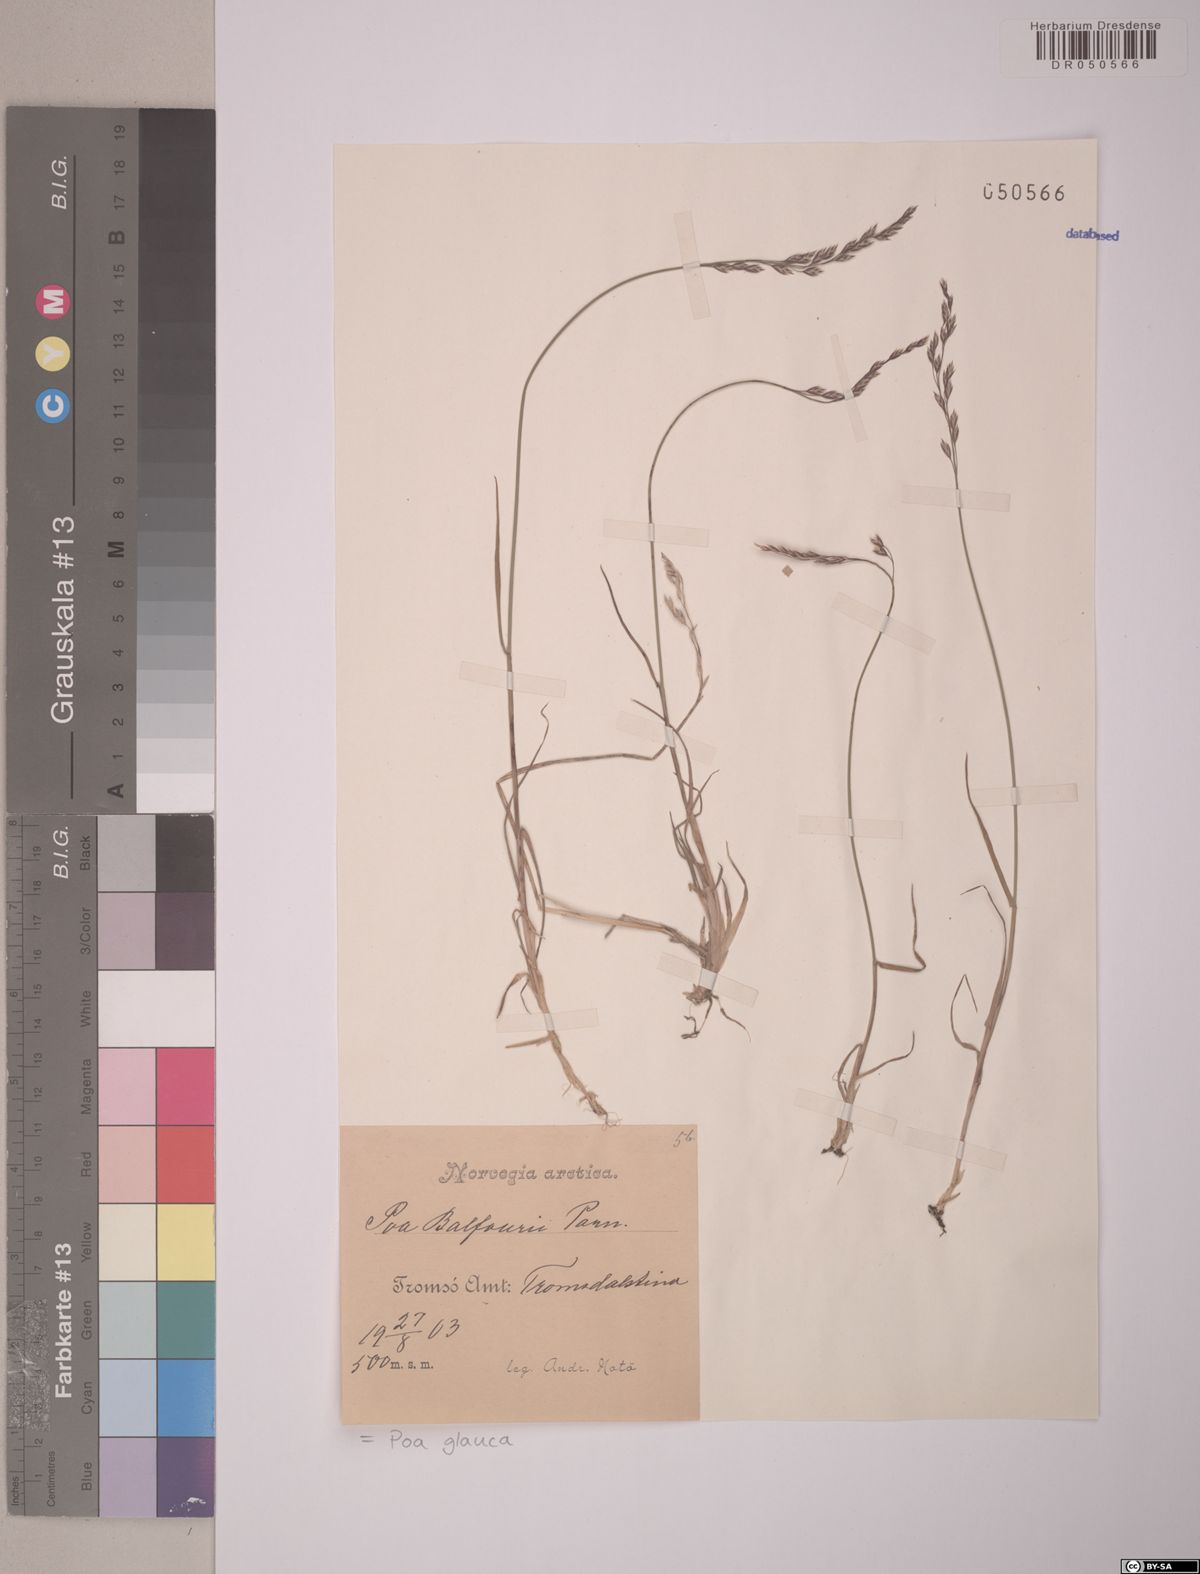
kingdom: Plantae
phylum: Tracheophyta
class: Liliopsida
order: Poales
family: Poaceae
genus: Poa
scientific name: Poa glauca
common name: Glaucous bluegrass
